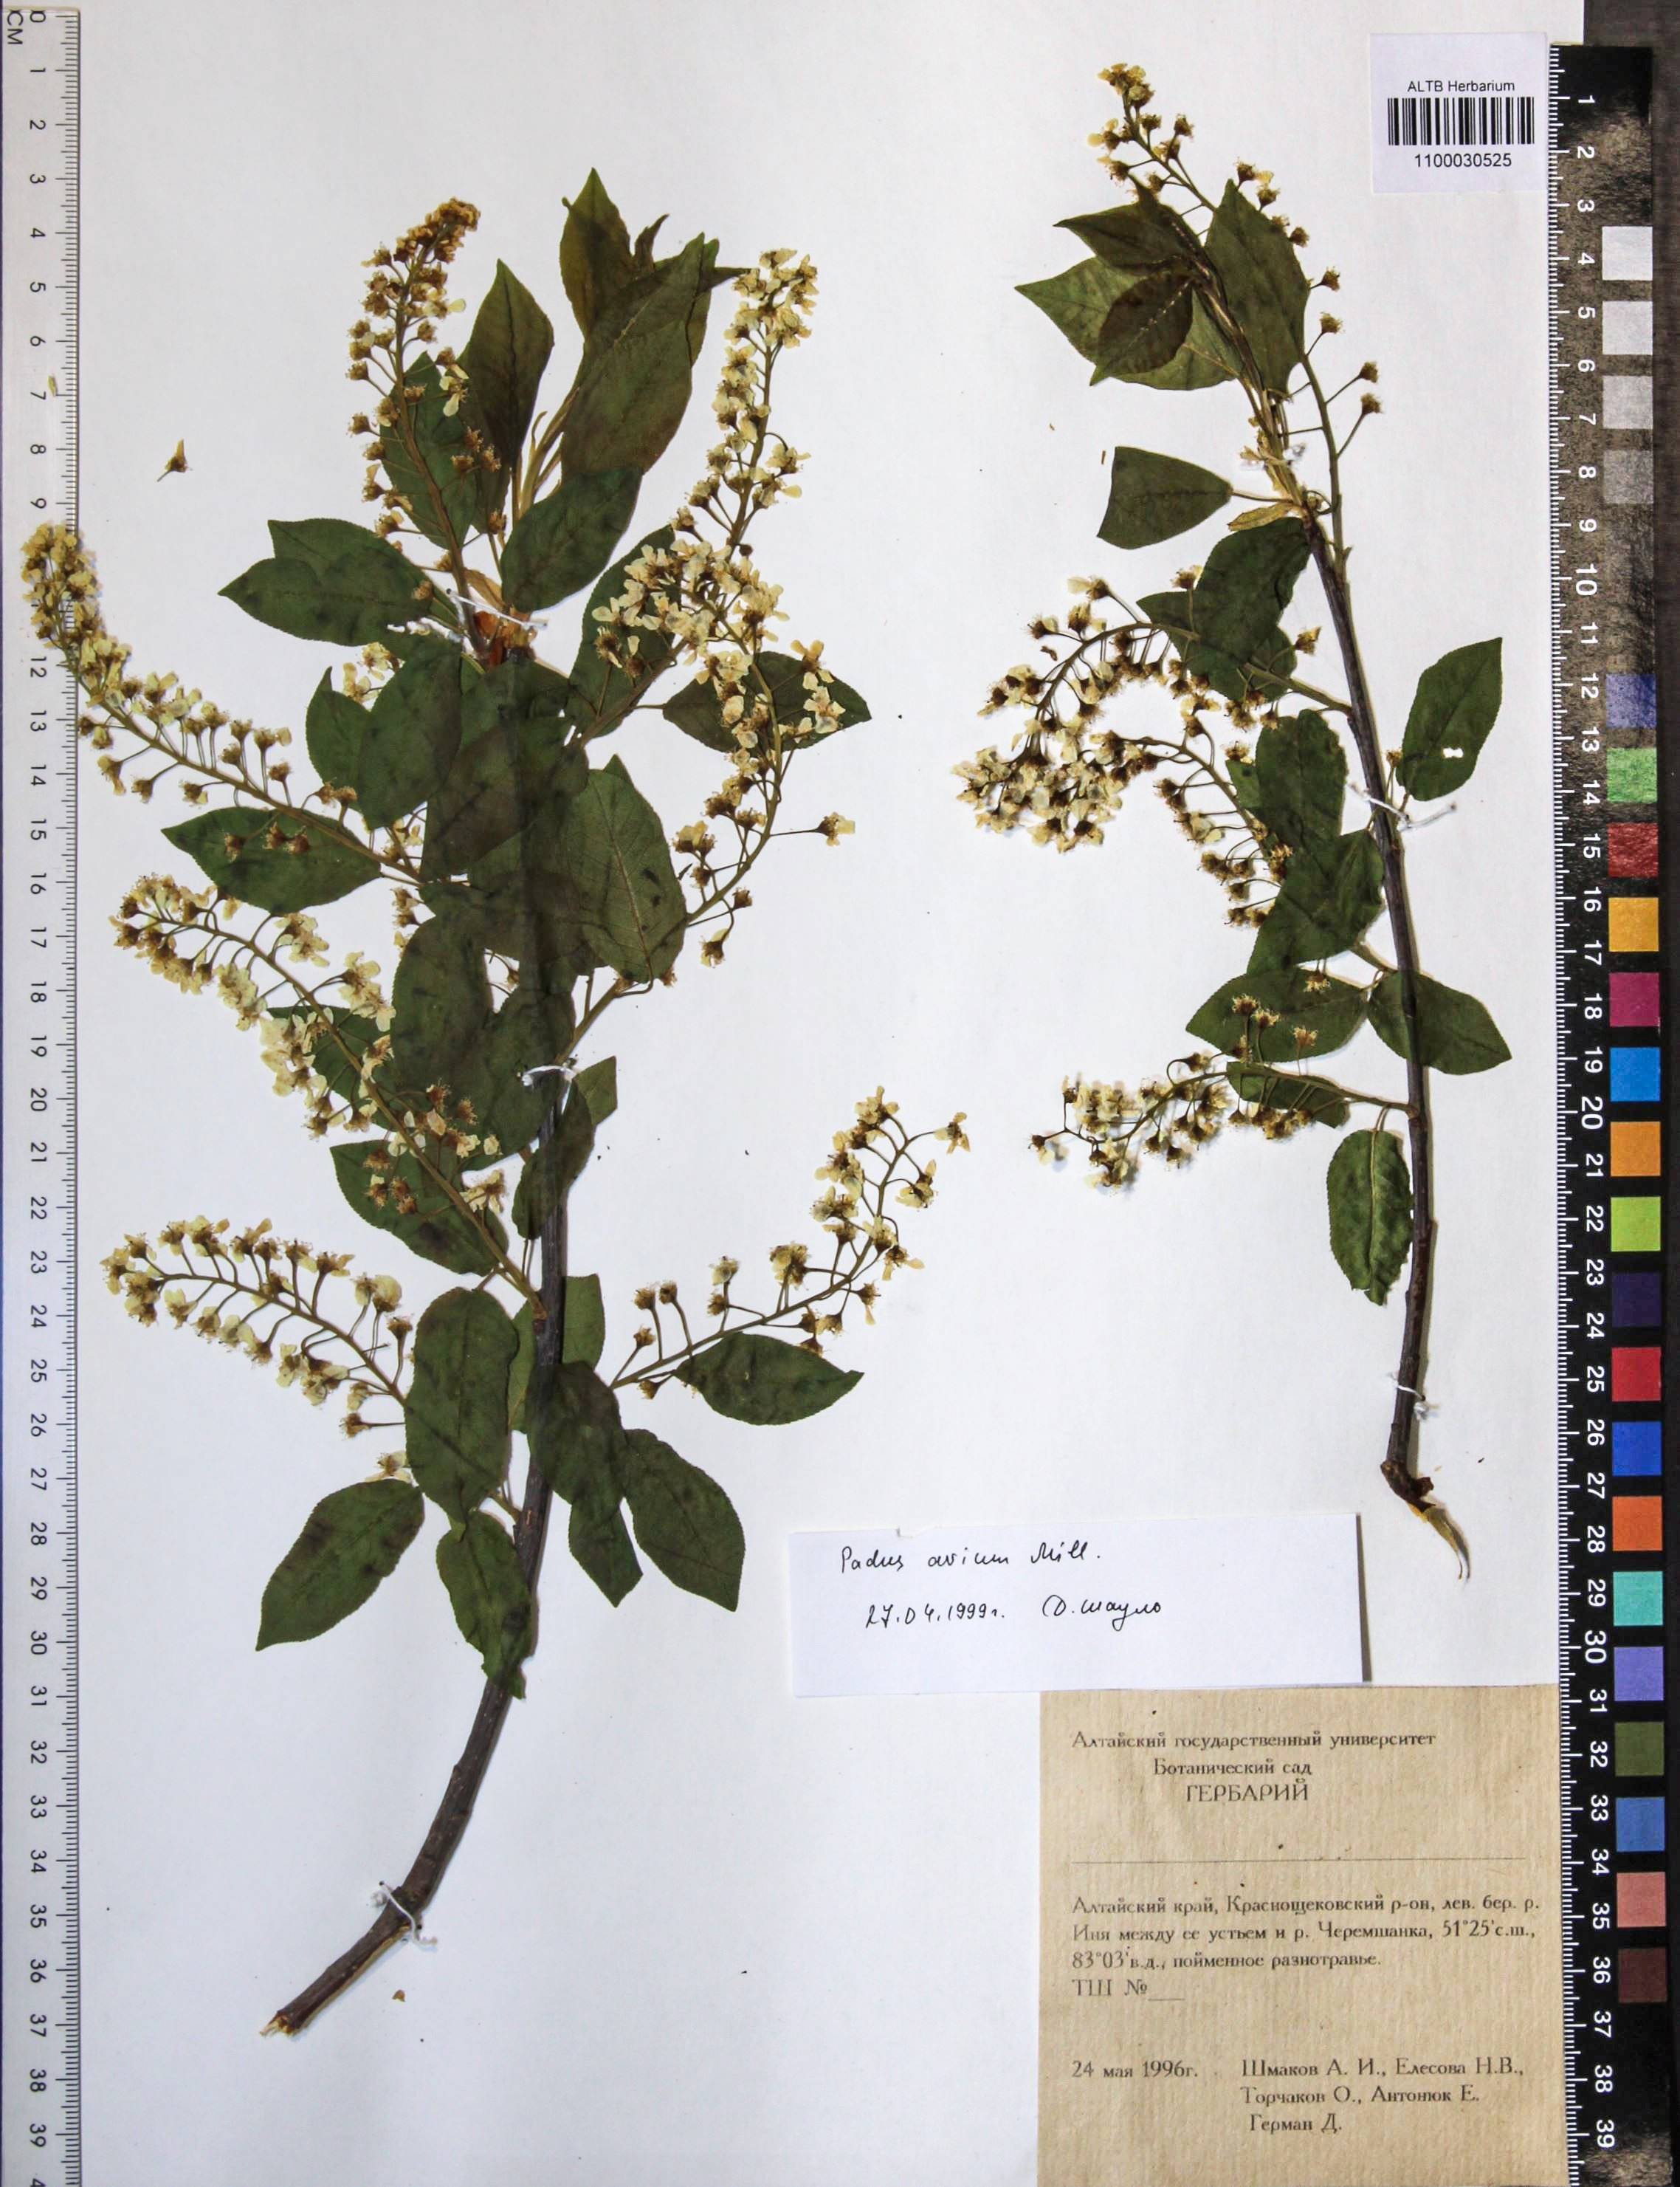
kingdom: Plantae
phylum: Tracheophyta
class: Magnoliopsida
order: Rosales
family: Rosaceae
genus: Prunus
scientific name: Prunus padus
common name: Bird cherry
